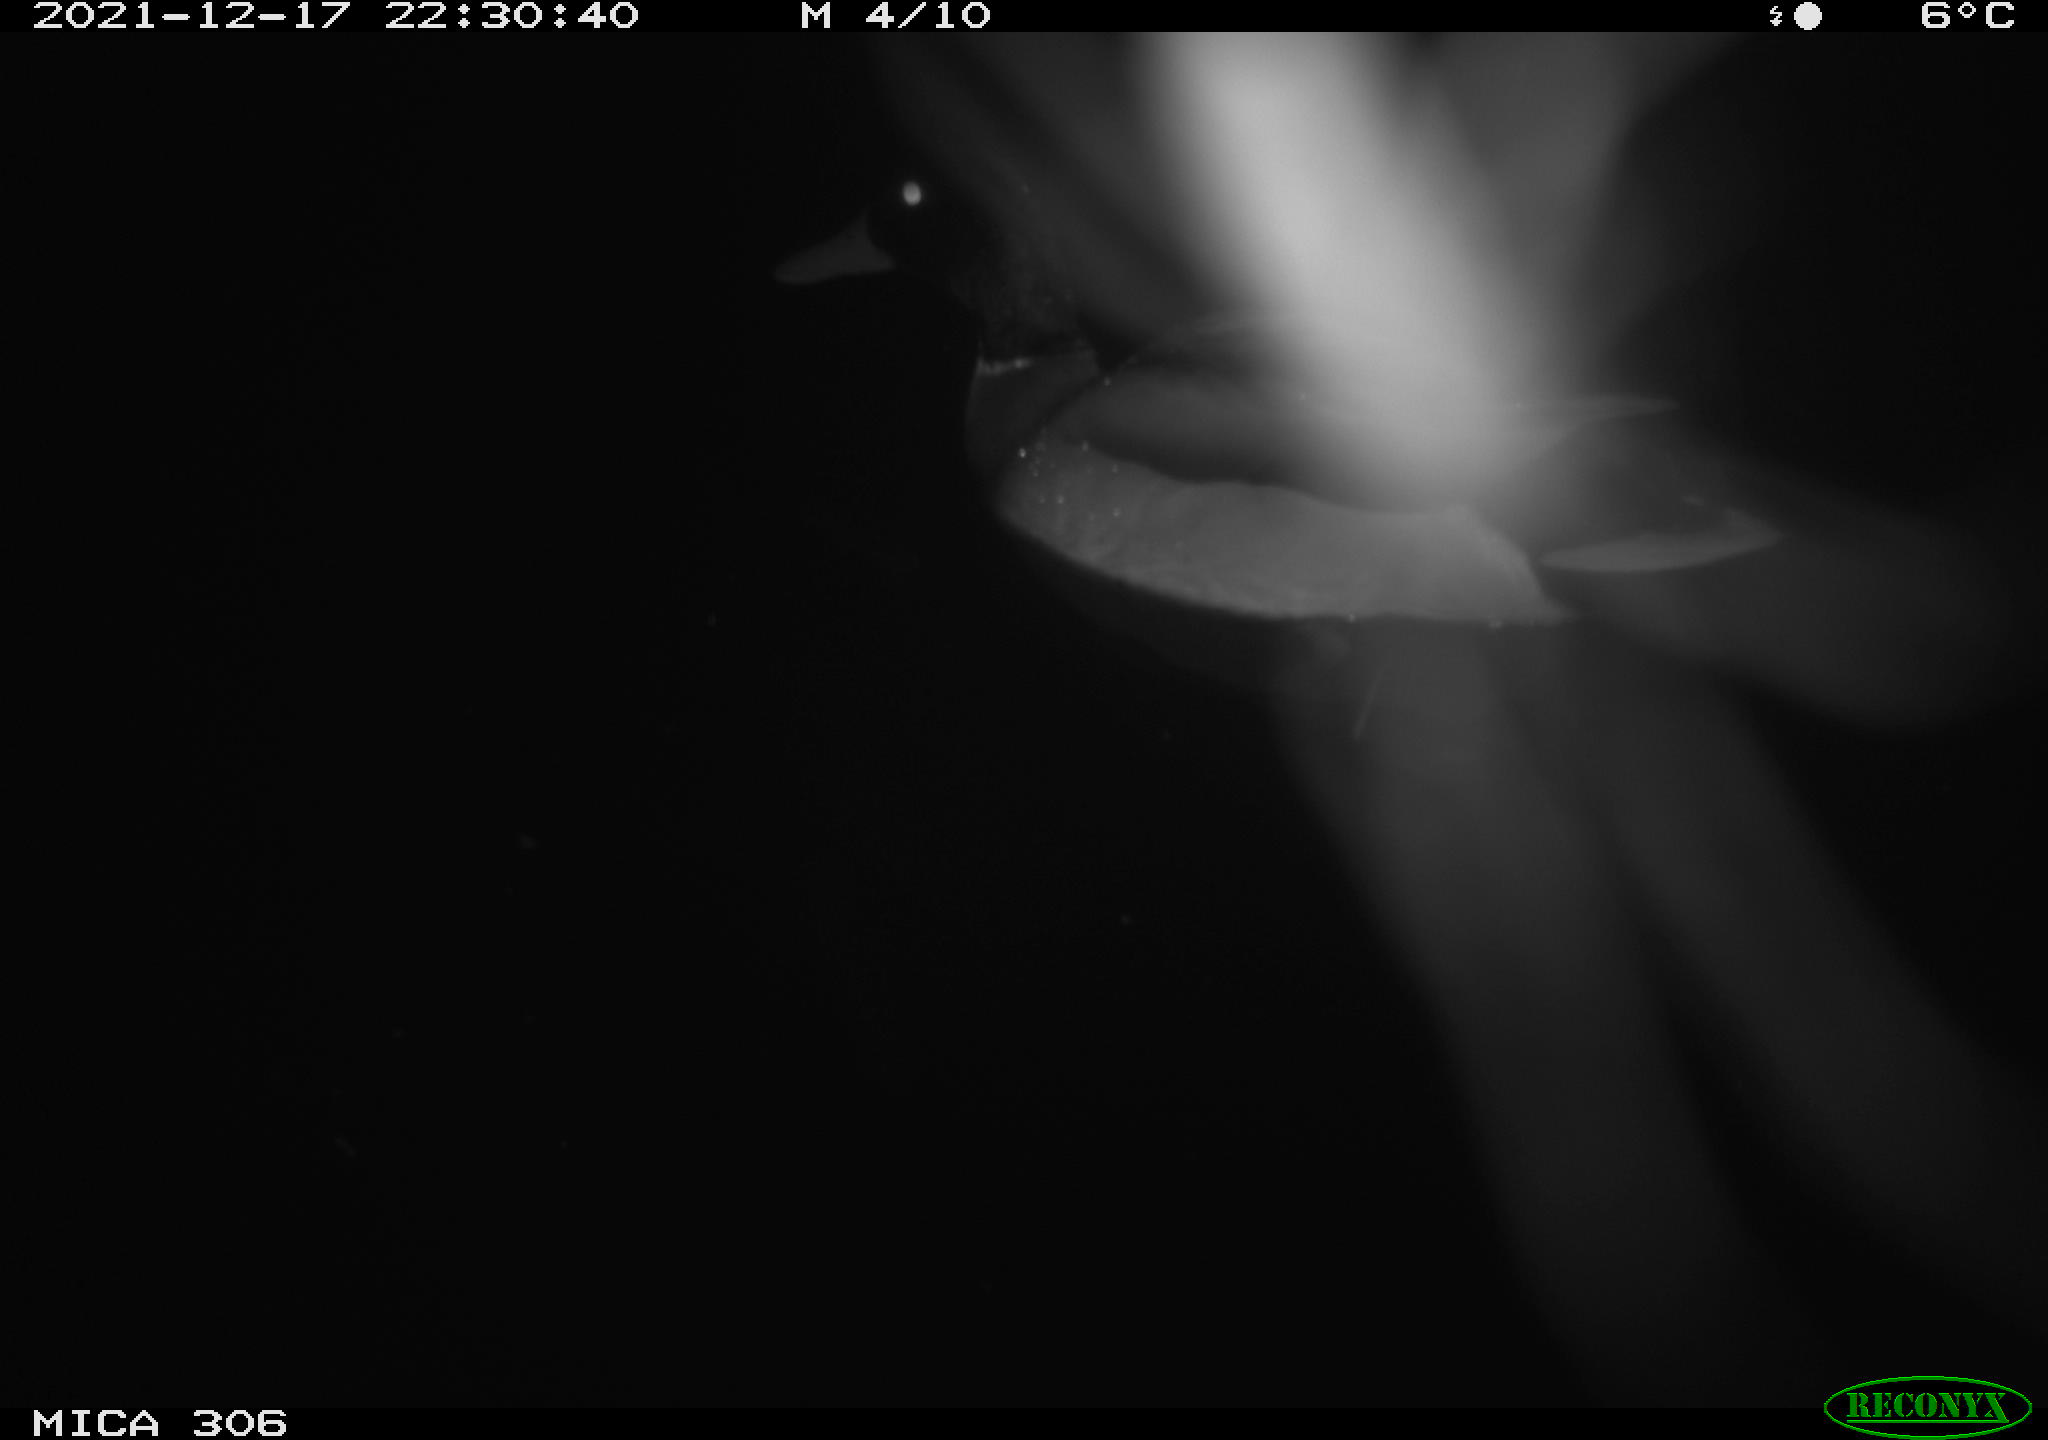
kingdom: Animalia
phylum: Chordata
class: Aves
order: Anseriformes
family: Anatidae
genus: Anas
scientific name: Anas
